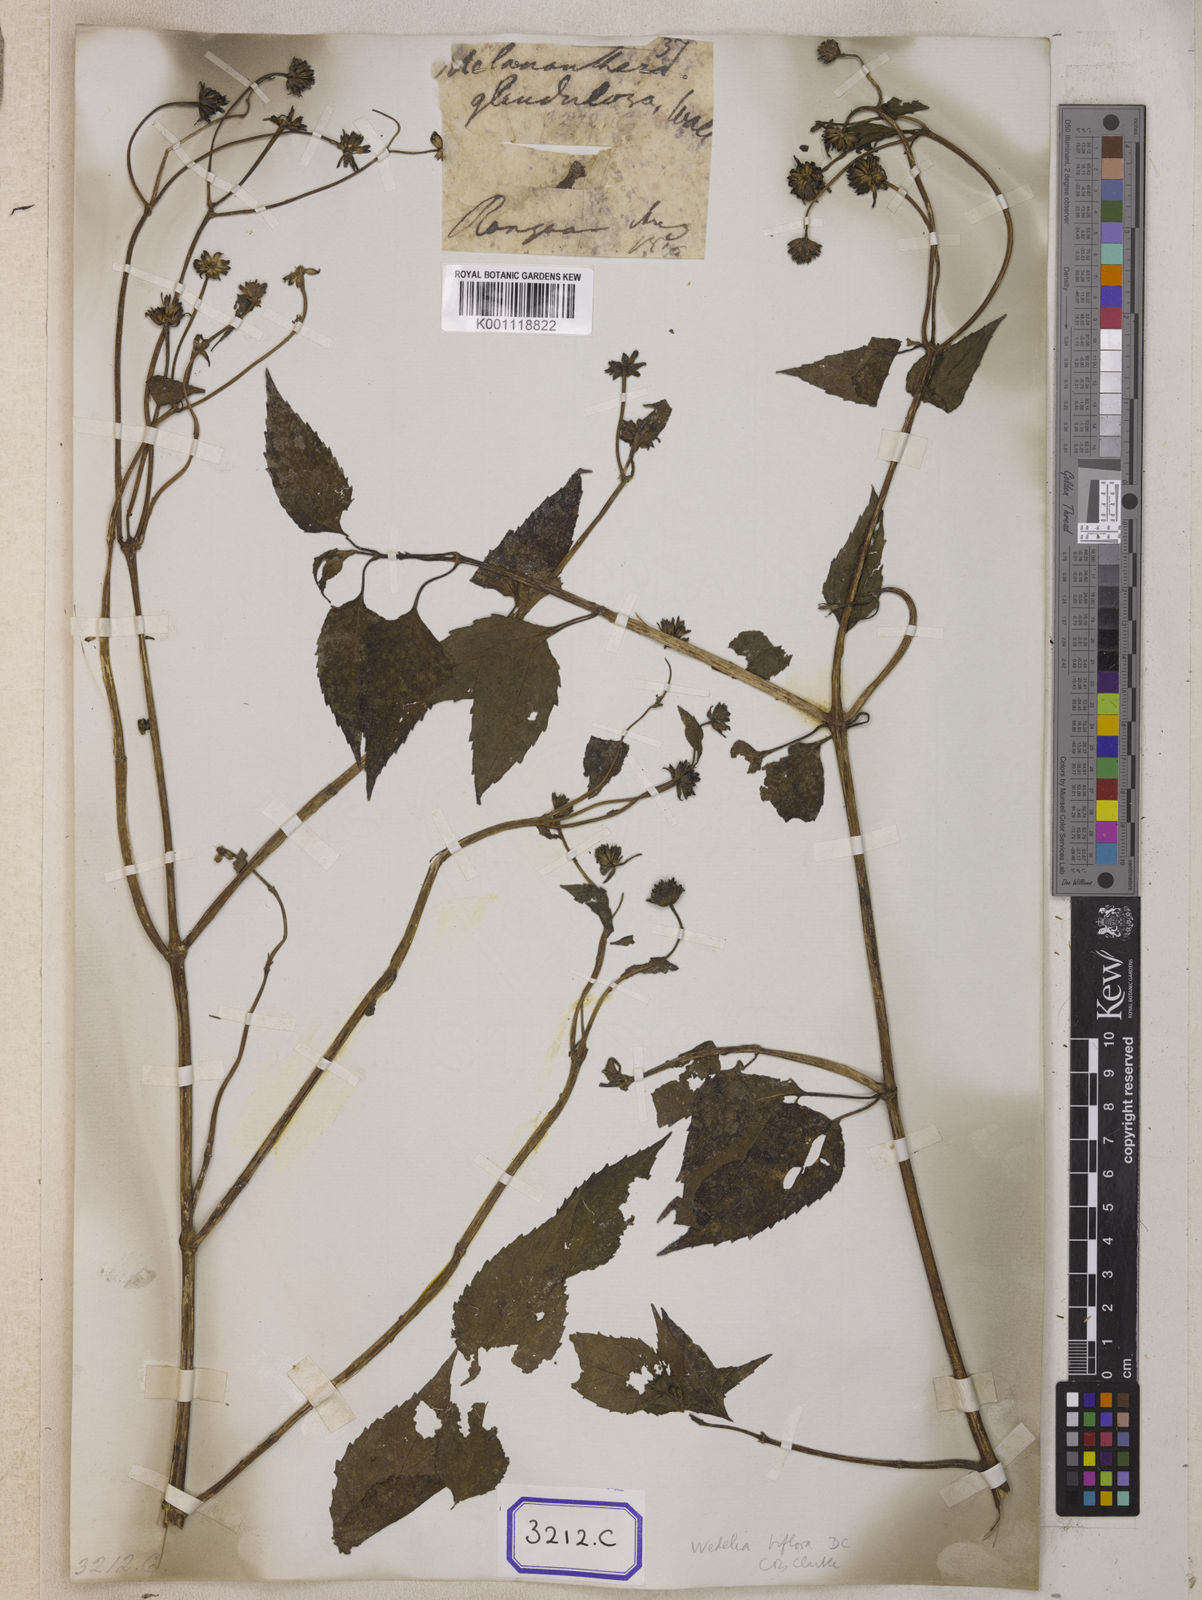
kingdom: Plantae
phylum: Tracheophyta
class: Magnoliopsida
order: Asterales
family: Asteraceae
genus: Wollastonia
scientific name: Wollastonia biflora
